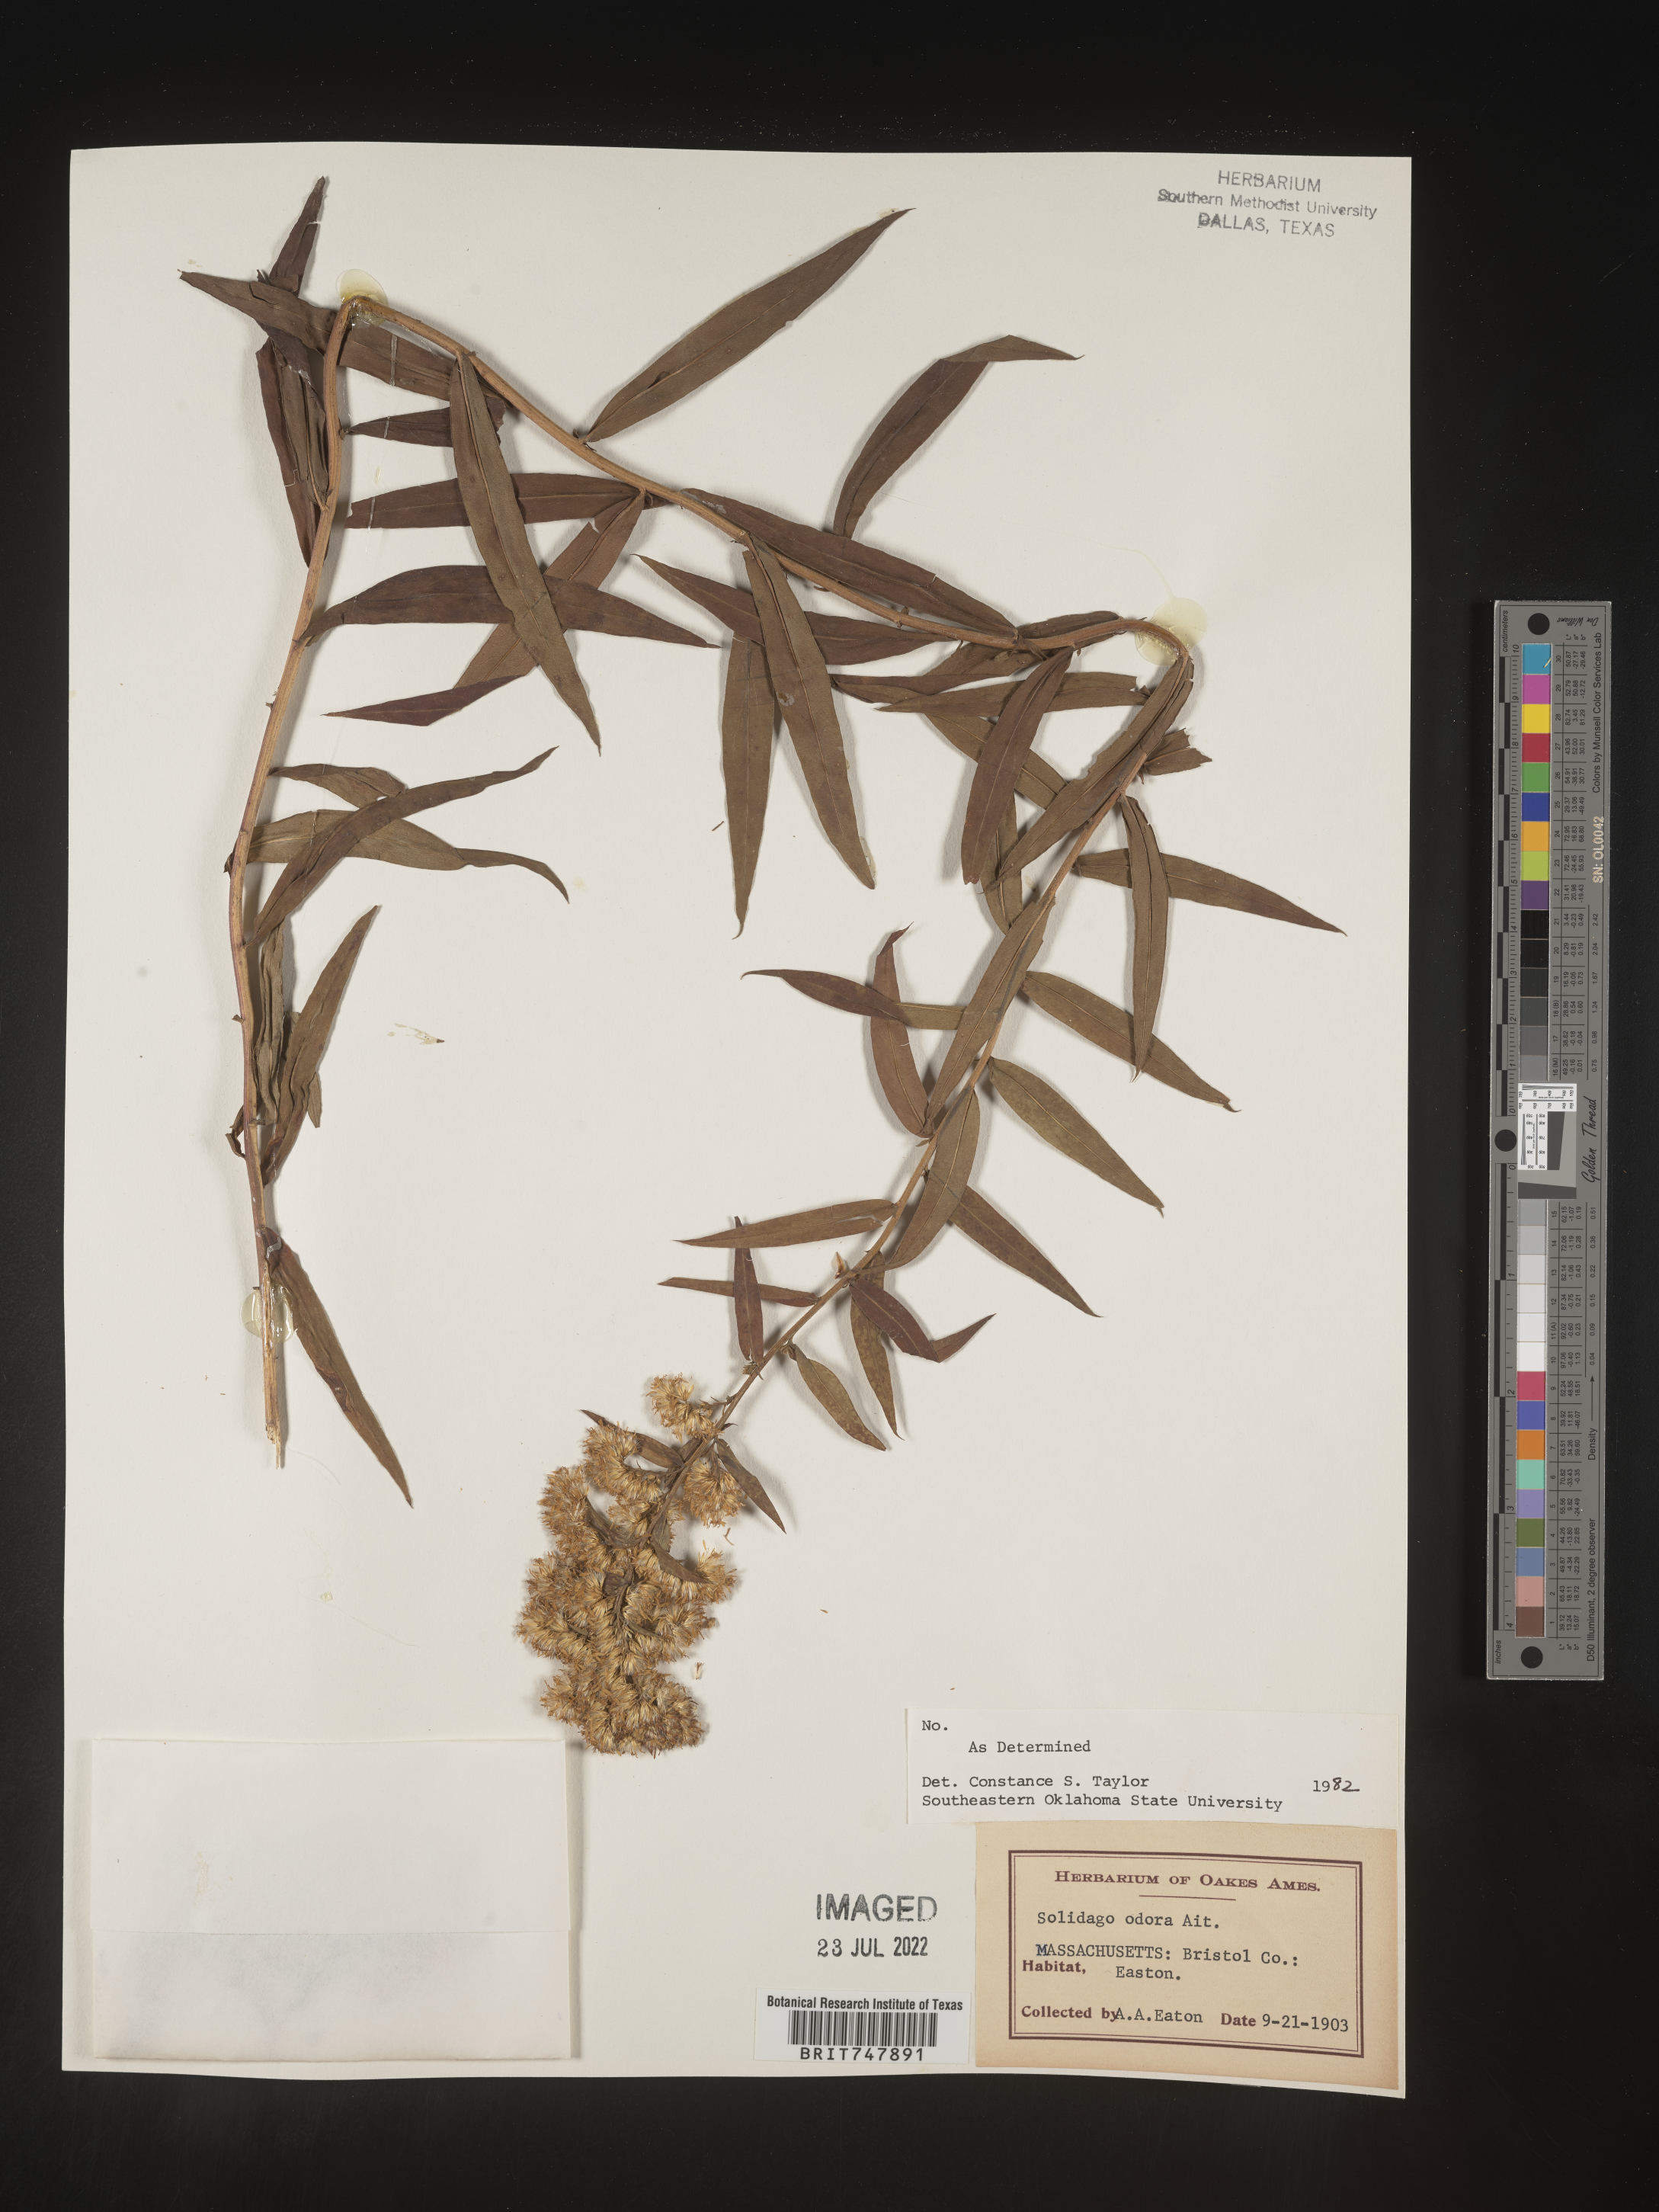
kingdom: Plantae
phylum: Tracheophyta
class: Magnoliopsida
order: Asterales
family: Asteraceae
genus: Solidago
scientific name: Solidago odora
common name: Anise-scented goldenrod
